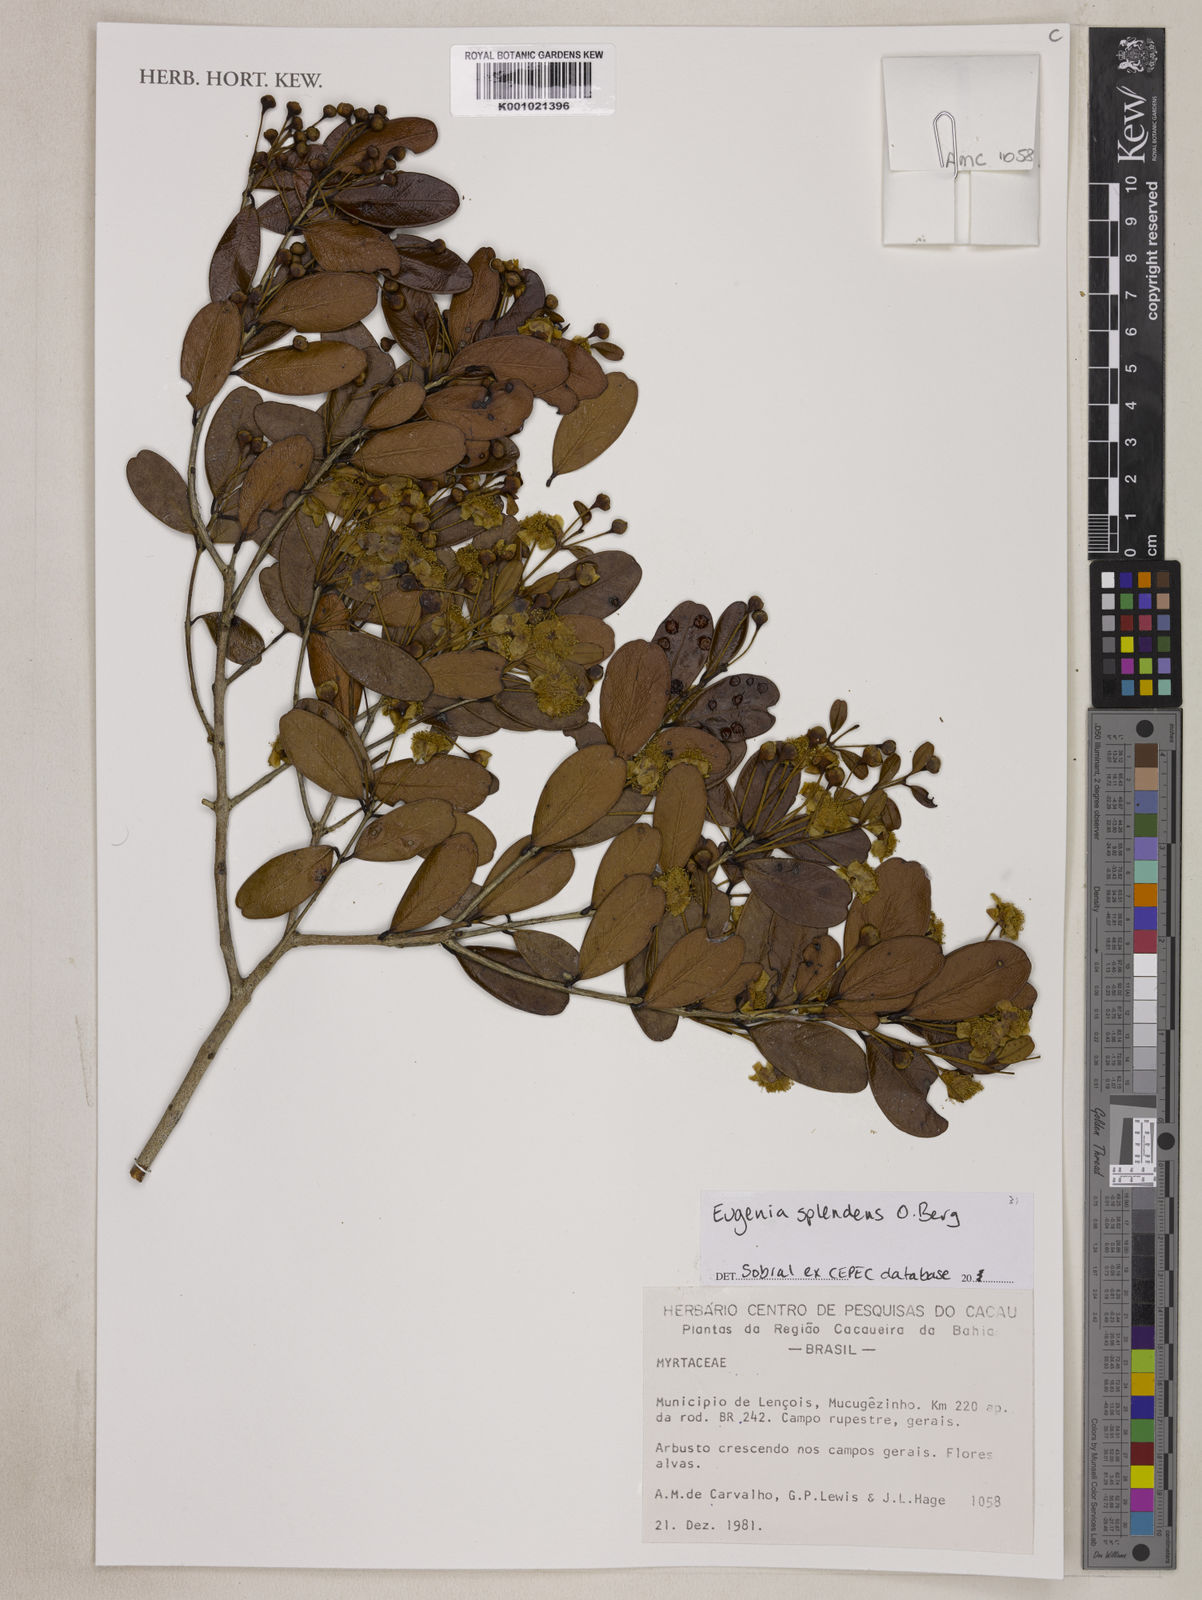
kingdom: Plantae
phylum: Tracheophyta
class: Magnoliopsida
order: Myrtales
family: Myrtaceae
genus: Eugenia
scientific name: Eugenia splendens
